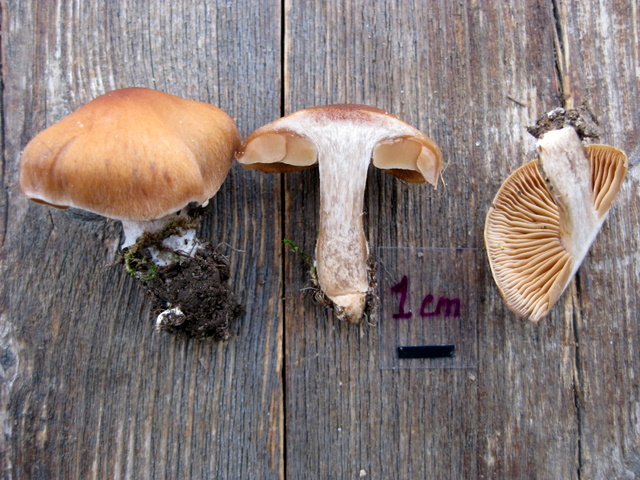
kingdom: Fungi
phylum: Basidiomycota
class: Agaricomycetes
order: Agaricales
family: Cortinariaceae
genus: Cortinarius
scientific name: Cortinarius subbalaustinus
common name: birke-slørhat
